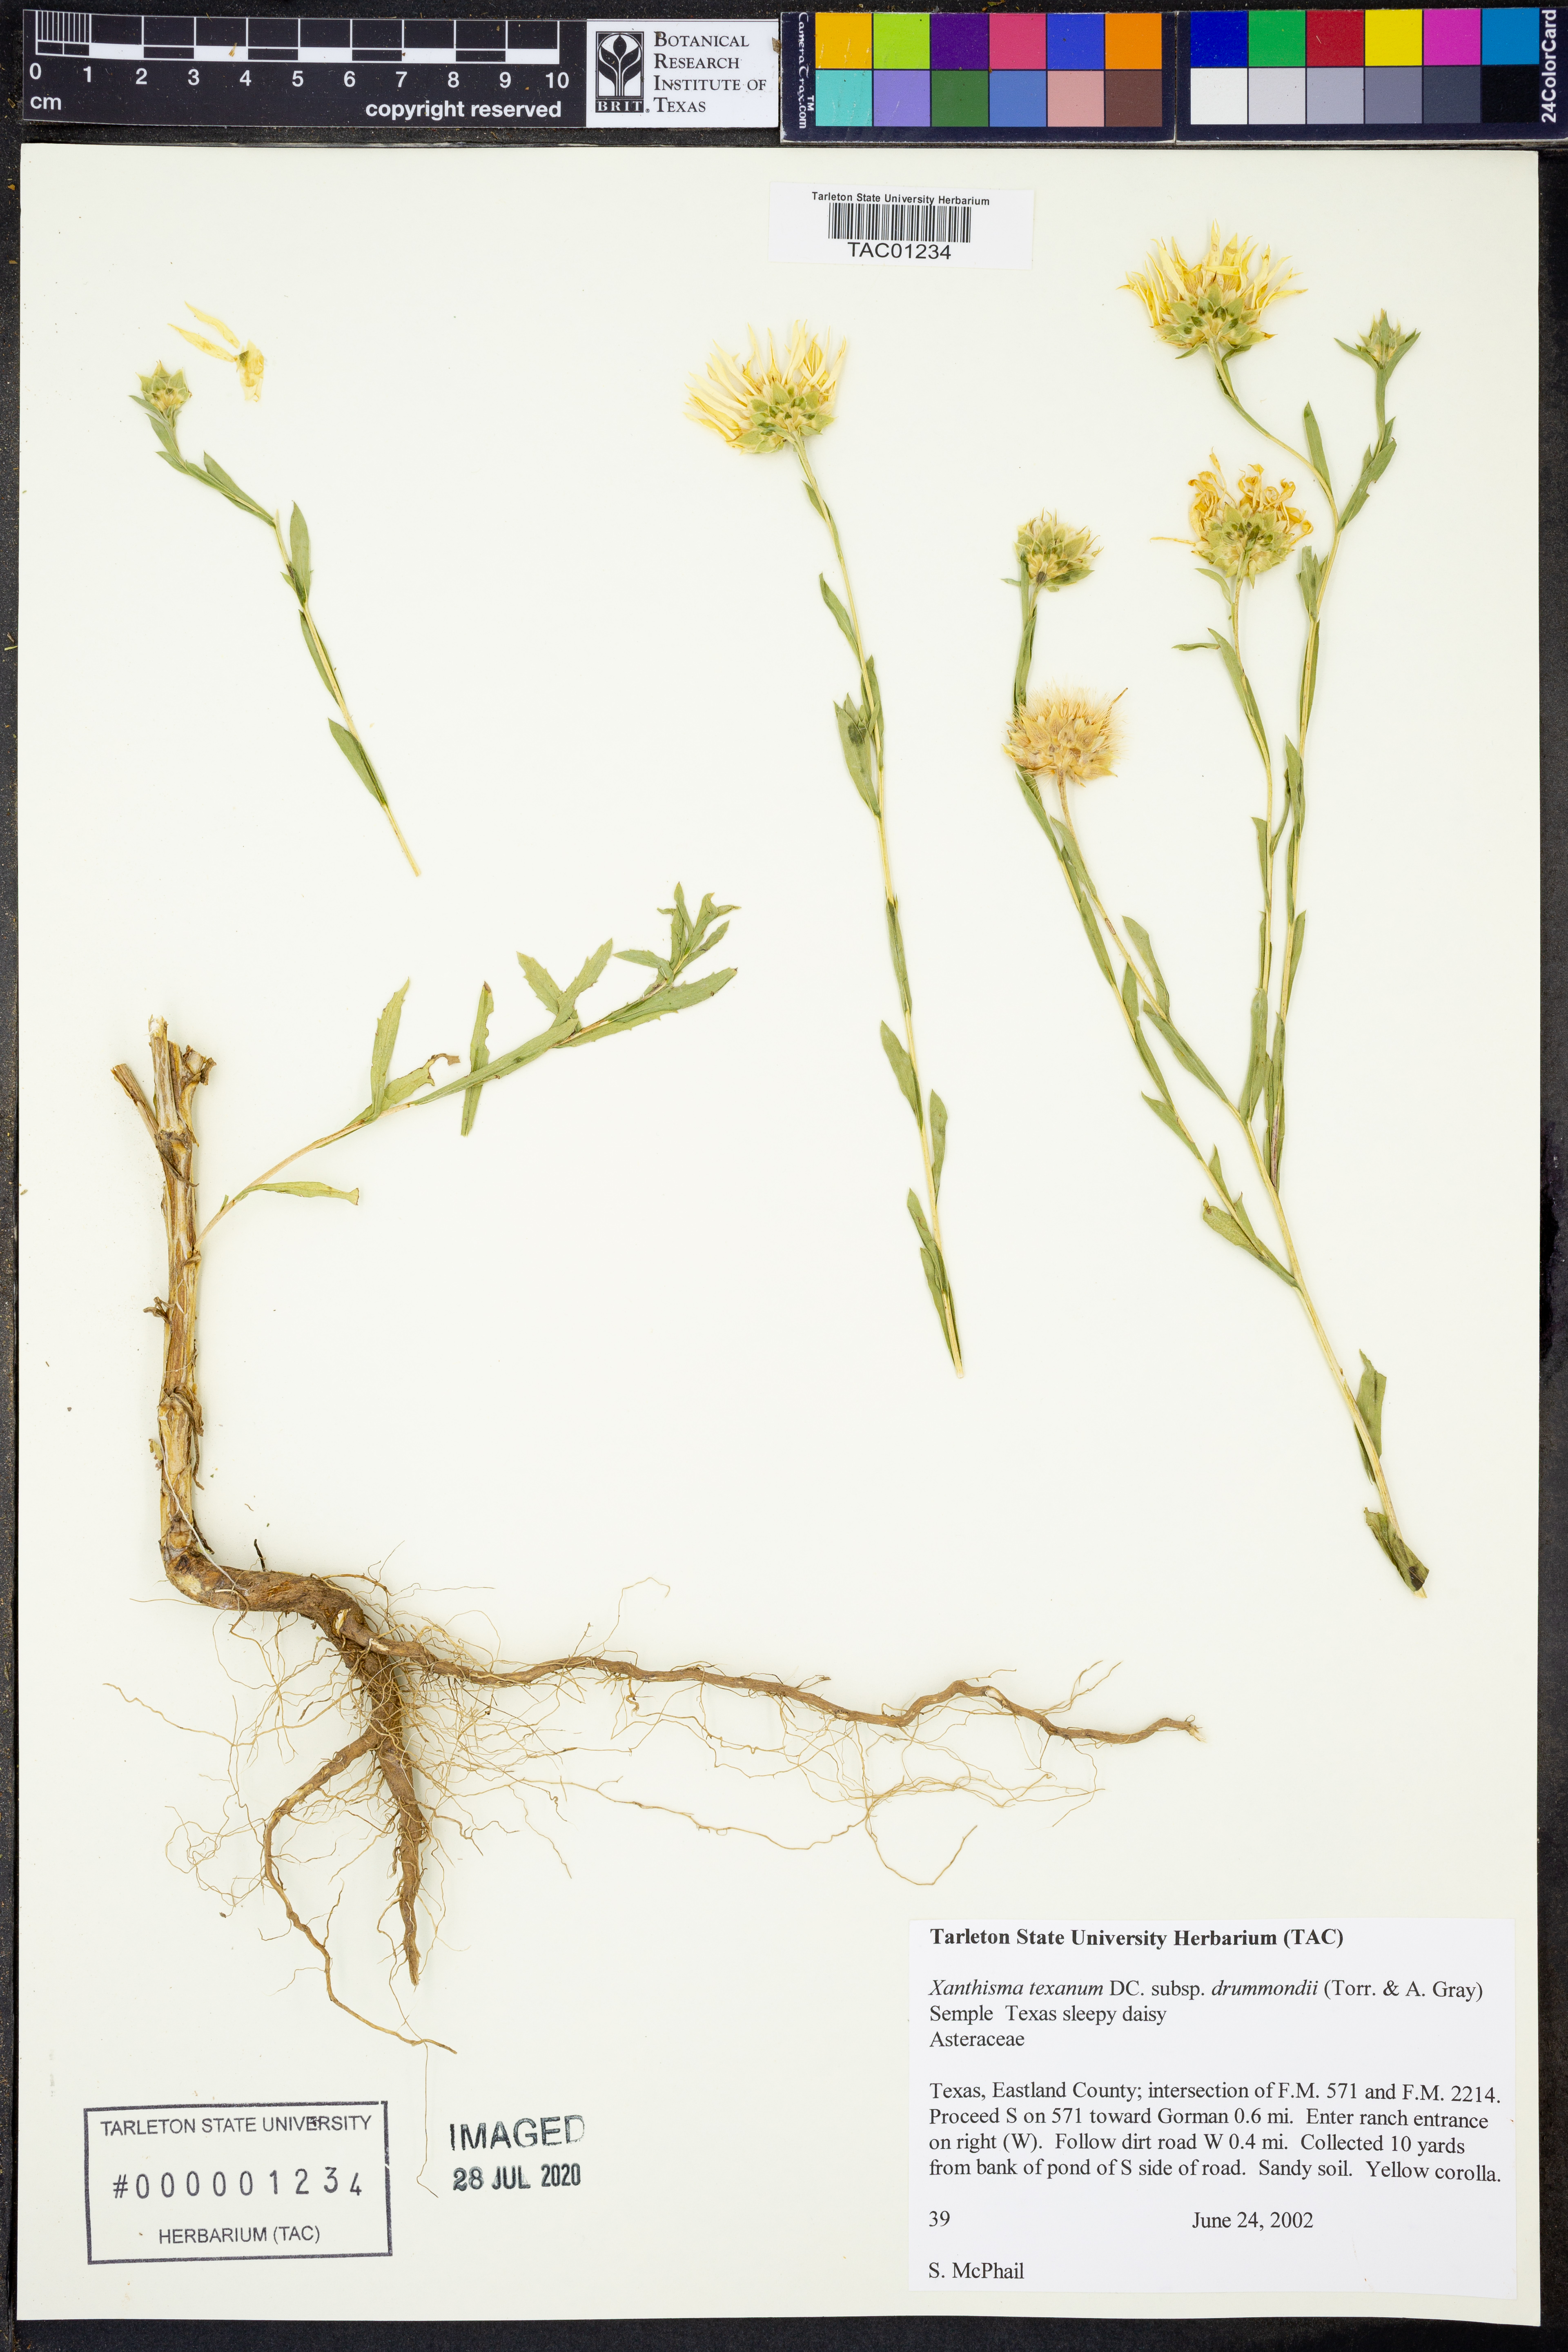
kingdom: Plantae
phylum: Tracheophyta
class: Magnoliopsida
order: Asterales
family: Asteraceae
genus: Xanthisma
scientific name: Xanthisma texanum
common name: Texas sleepy daisy
